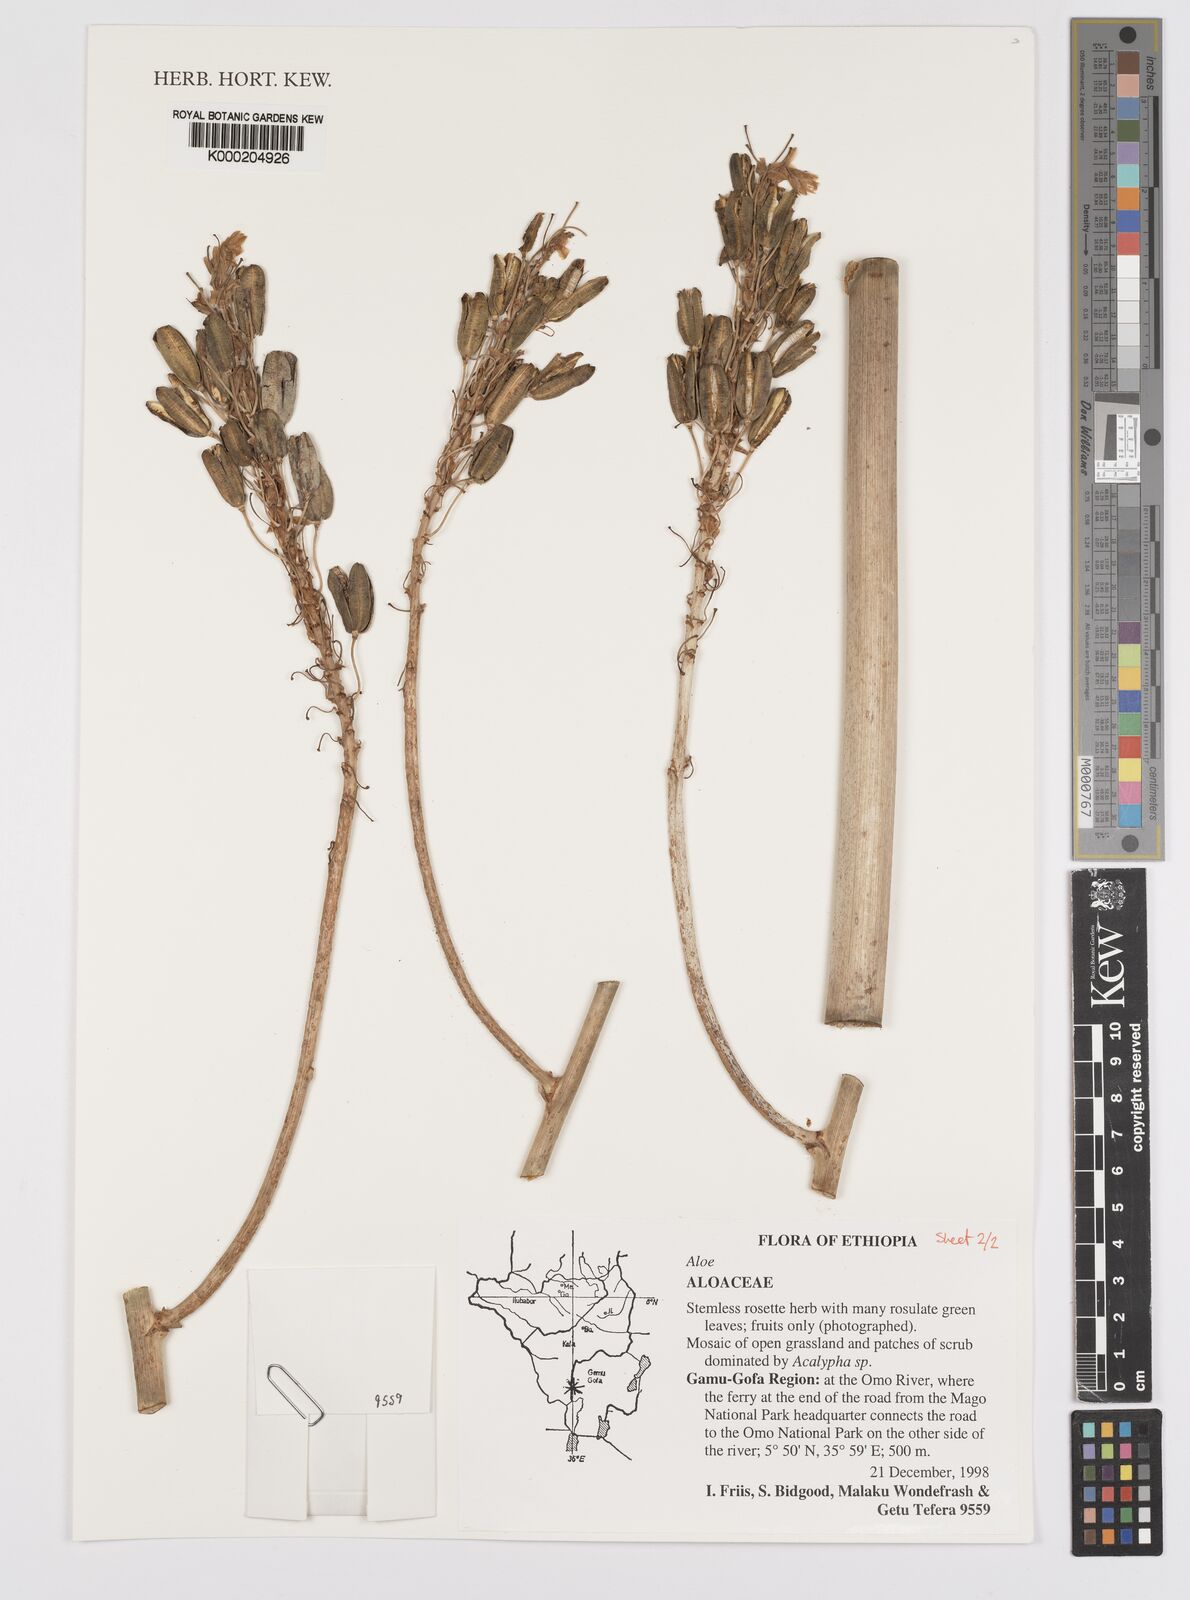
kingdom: Plantae
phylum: Tracheophyta
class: Liliopsida
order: Asparagales
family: Asphodelaceae
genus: Aloe
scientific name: Aloe
